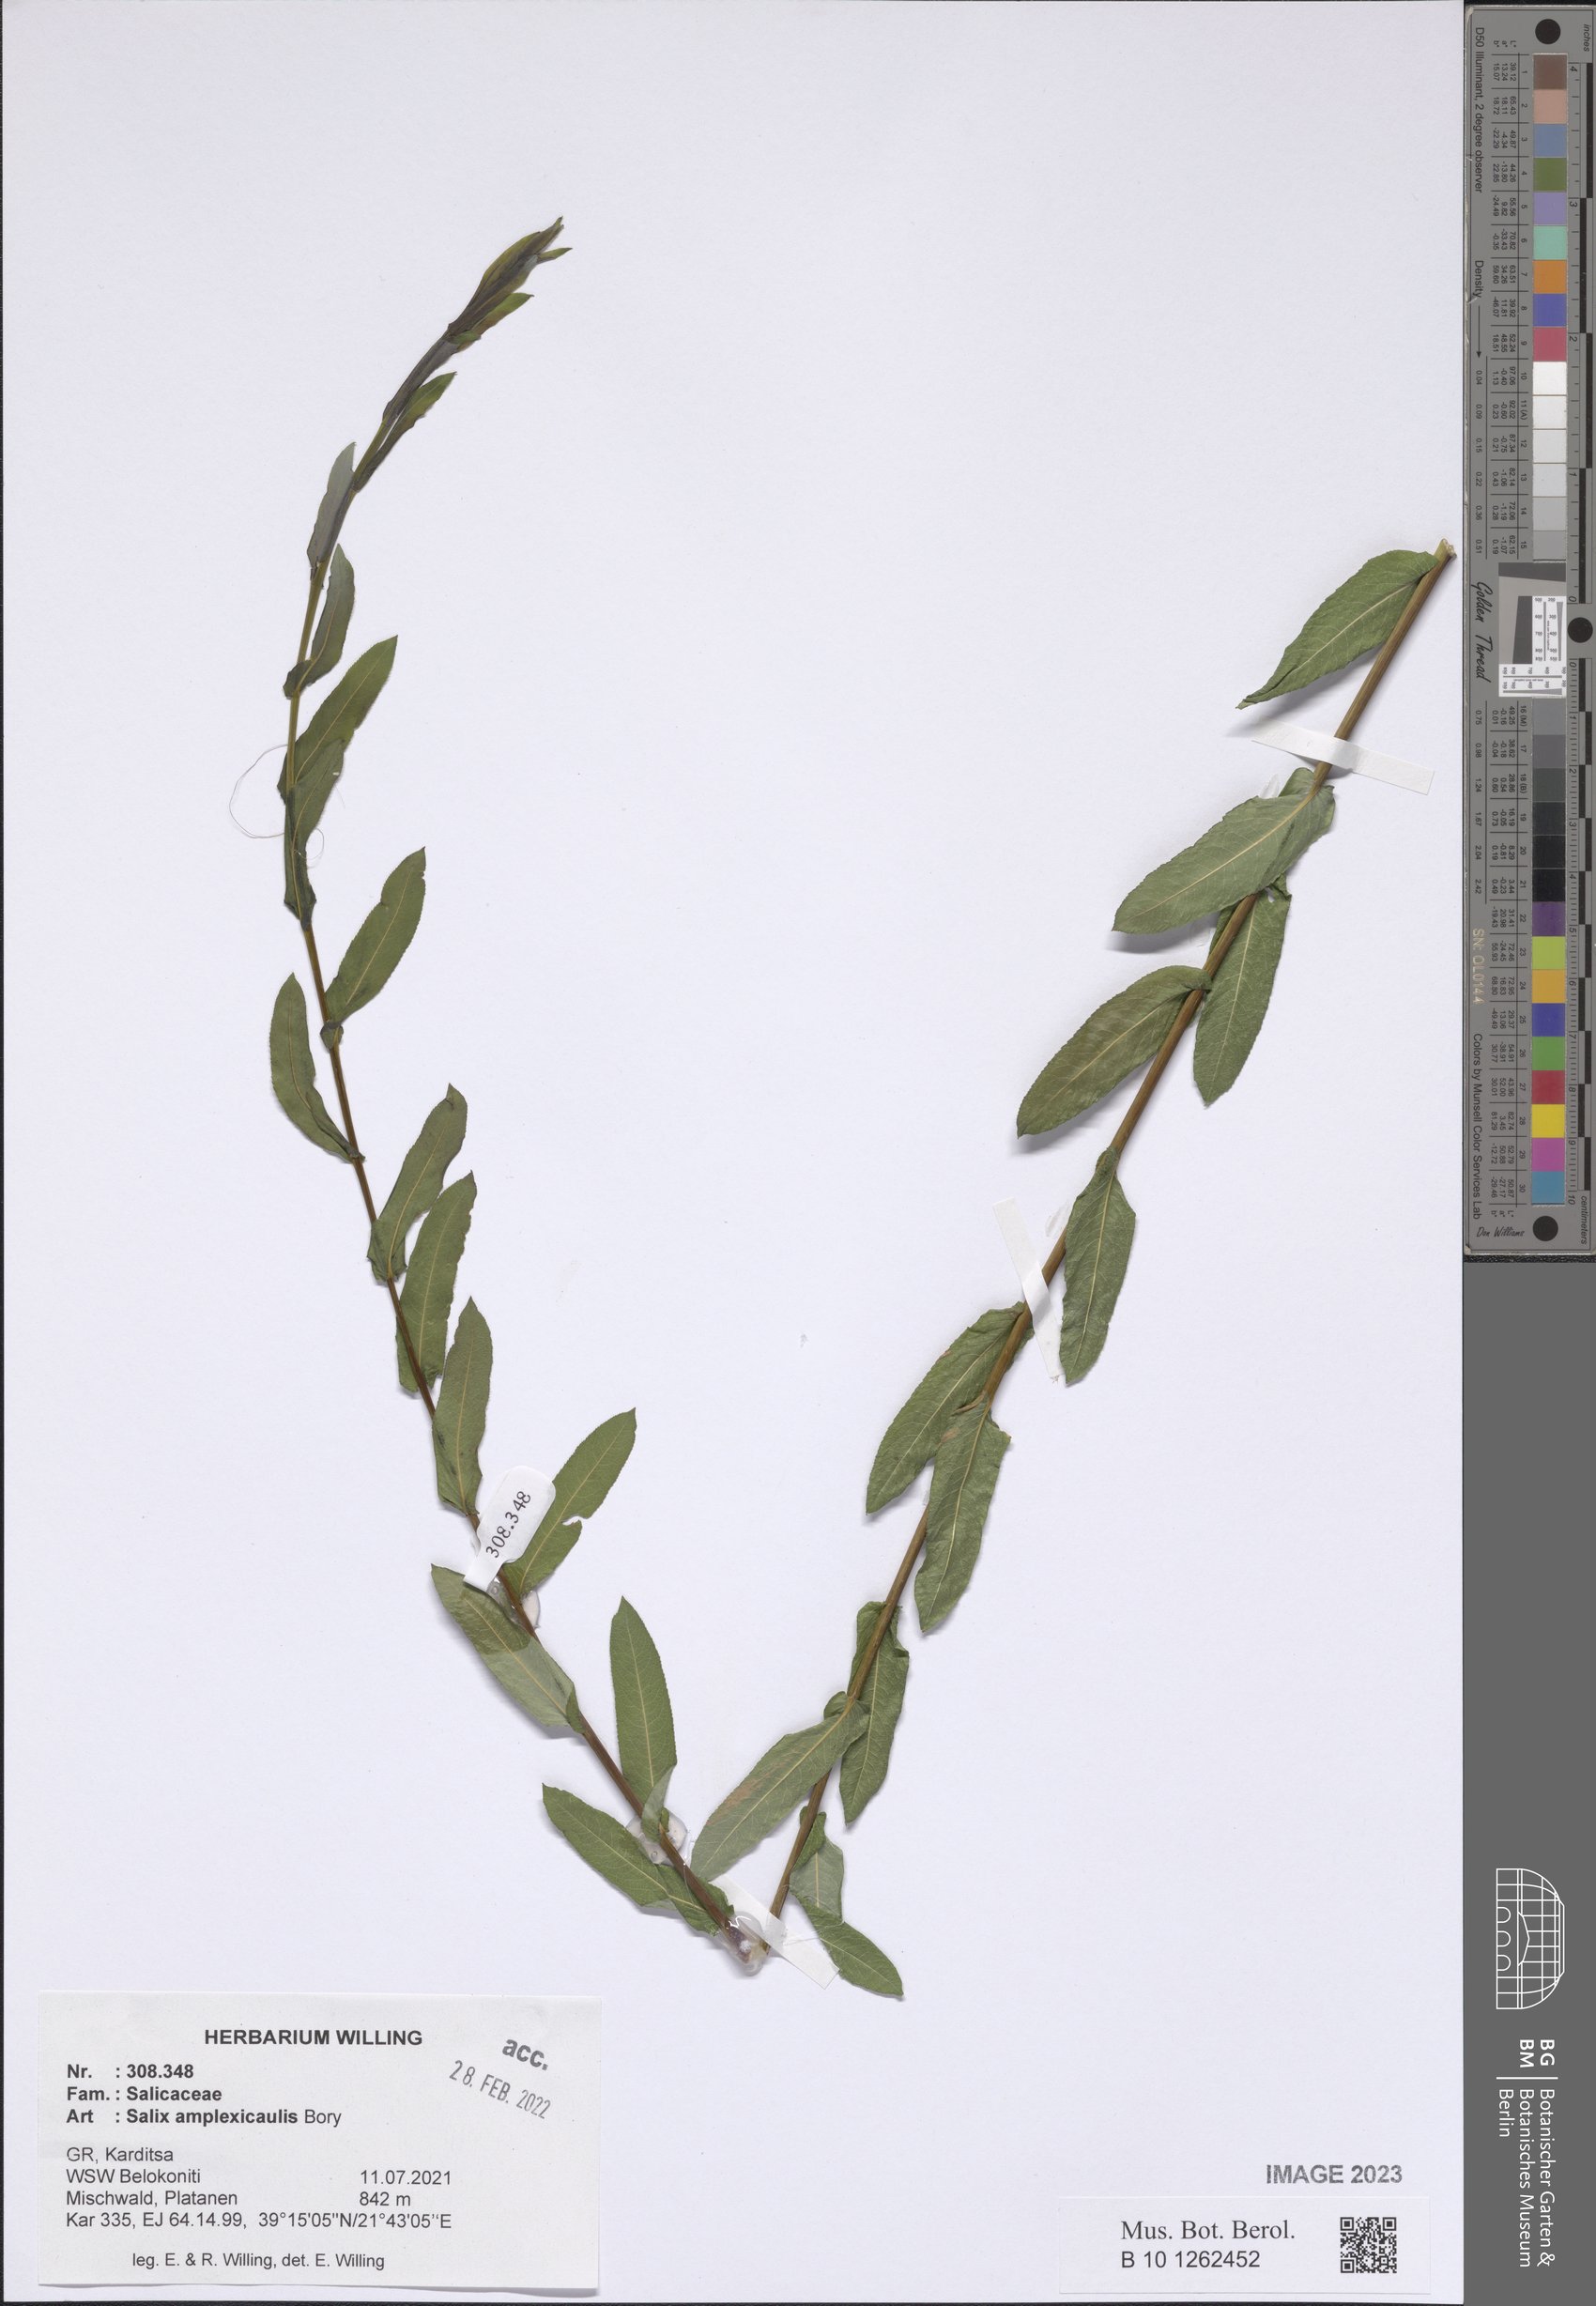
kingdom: Plantae
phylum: Tracheophyta
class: Magnoliopsida
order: Malpighiales
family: Salicaceae
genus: Salix
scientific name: Salix amplexicaulis
